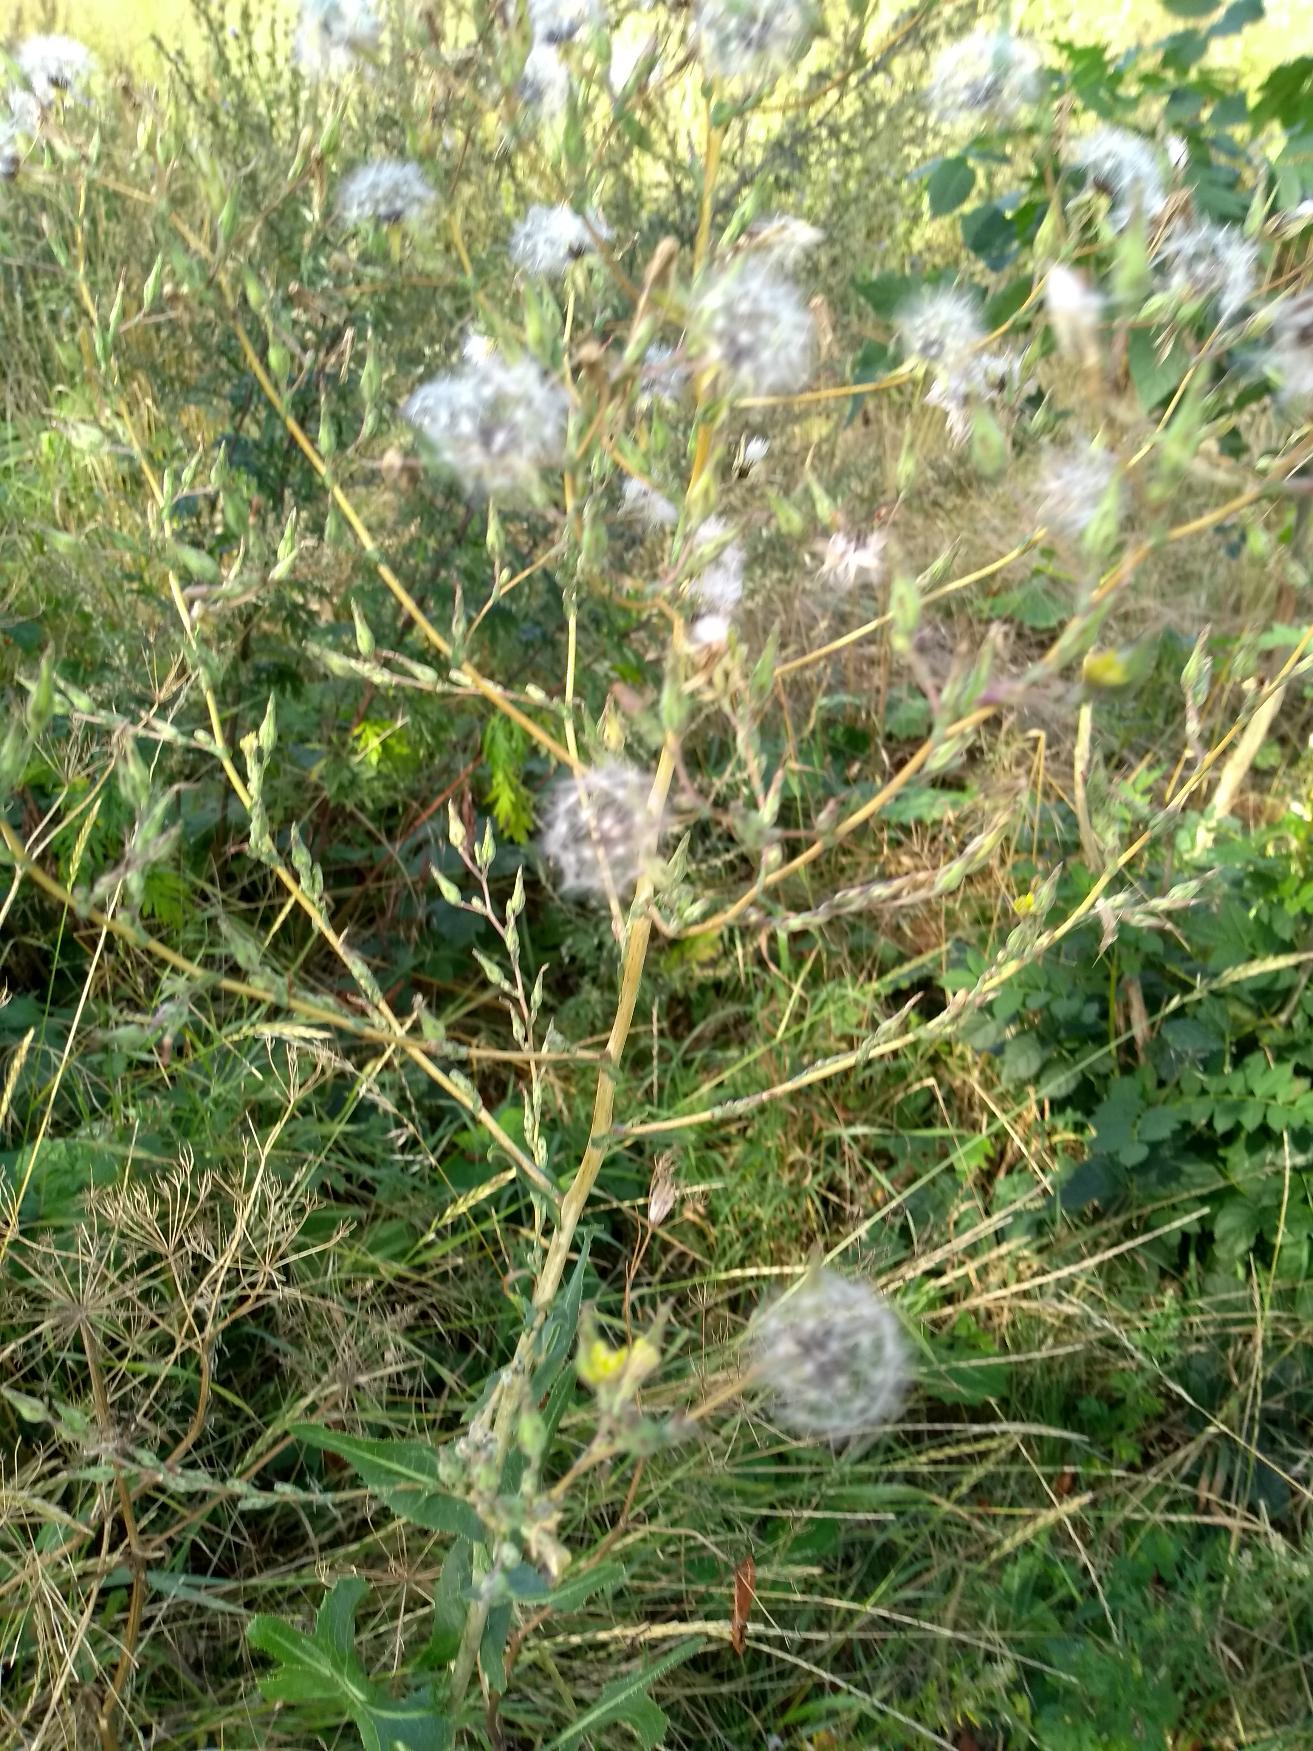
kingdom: Plantae
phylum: Tracheophyta
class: Magnoliopsida
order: Asterales
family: Asteraceae
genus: Lactuca
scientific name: Lactuca serriola
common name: Tornet salat
